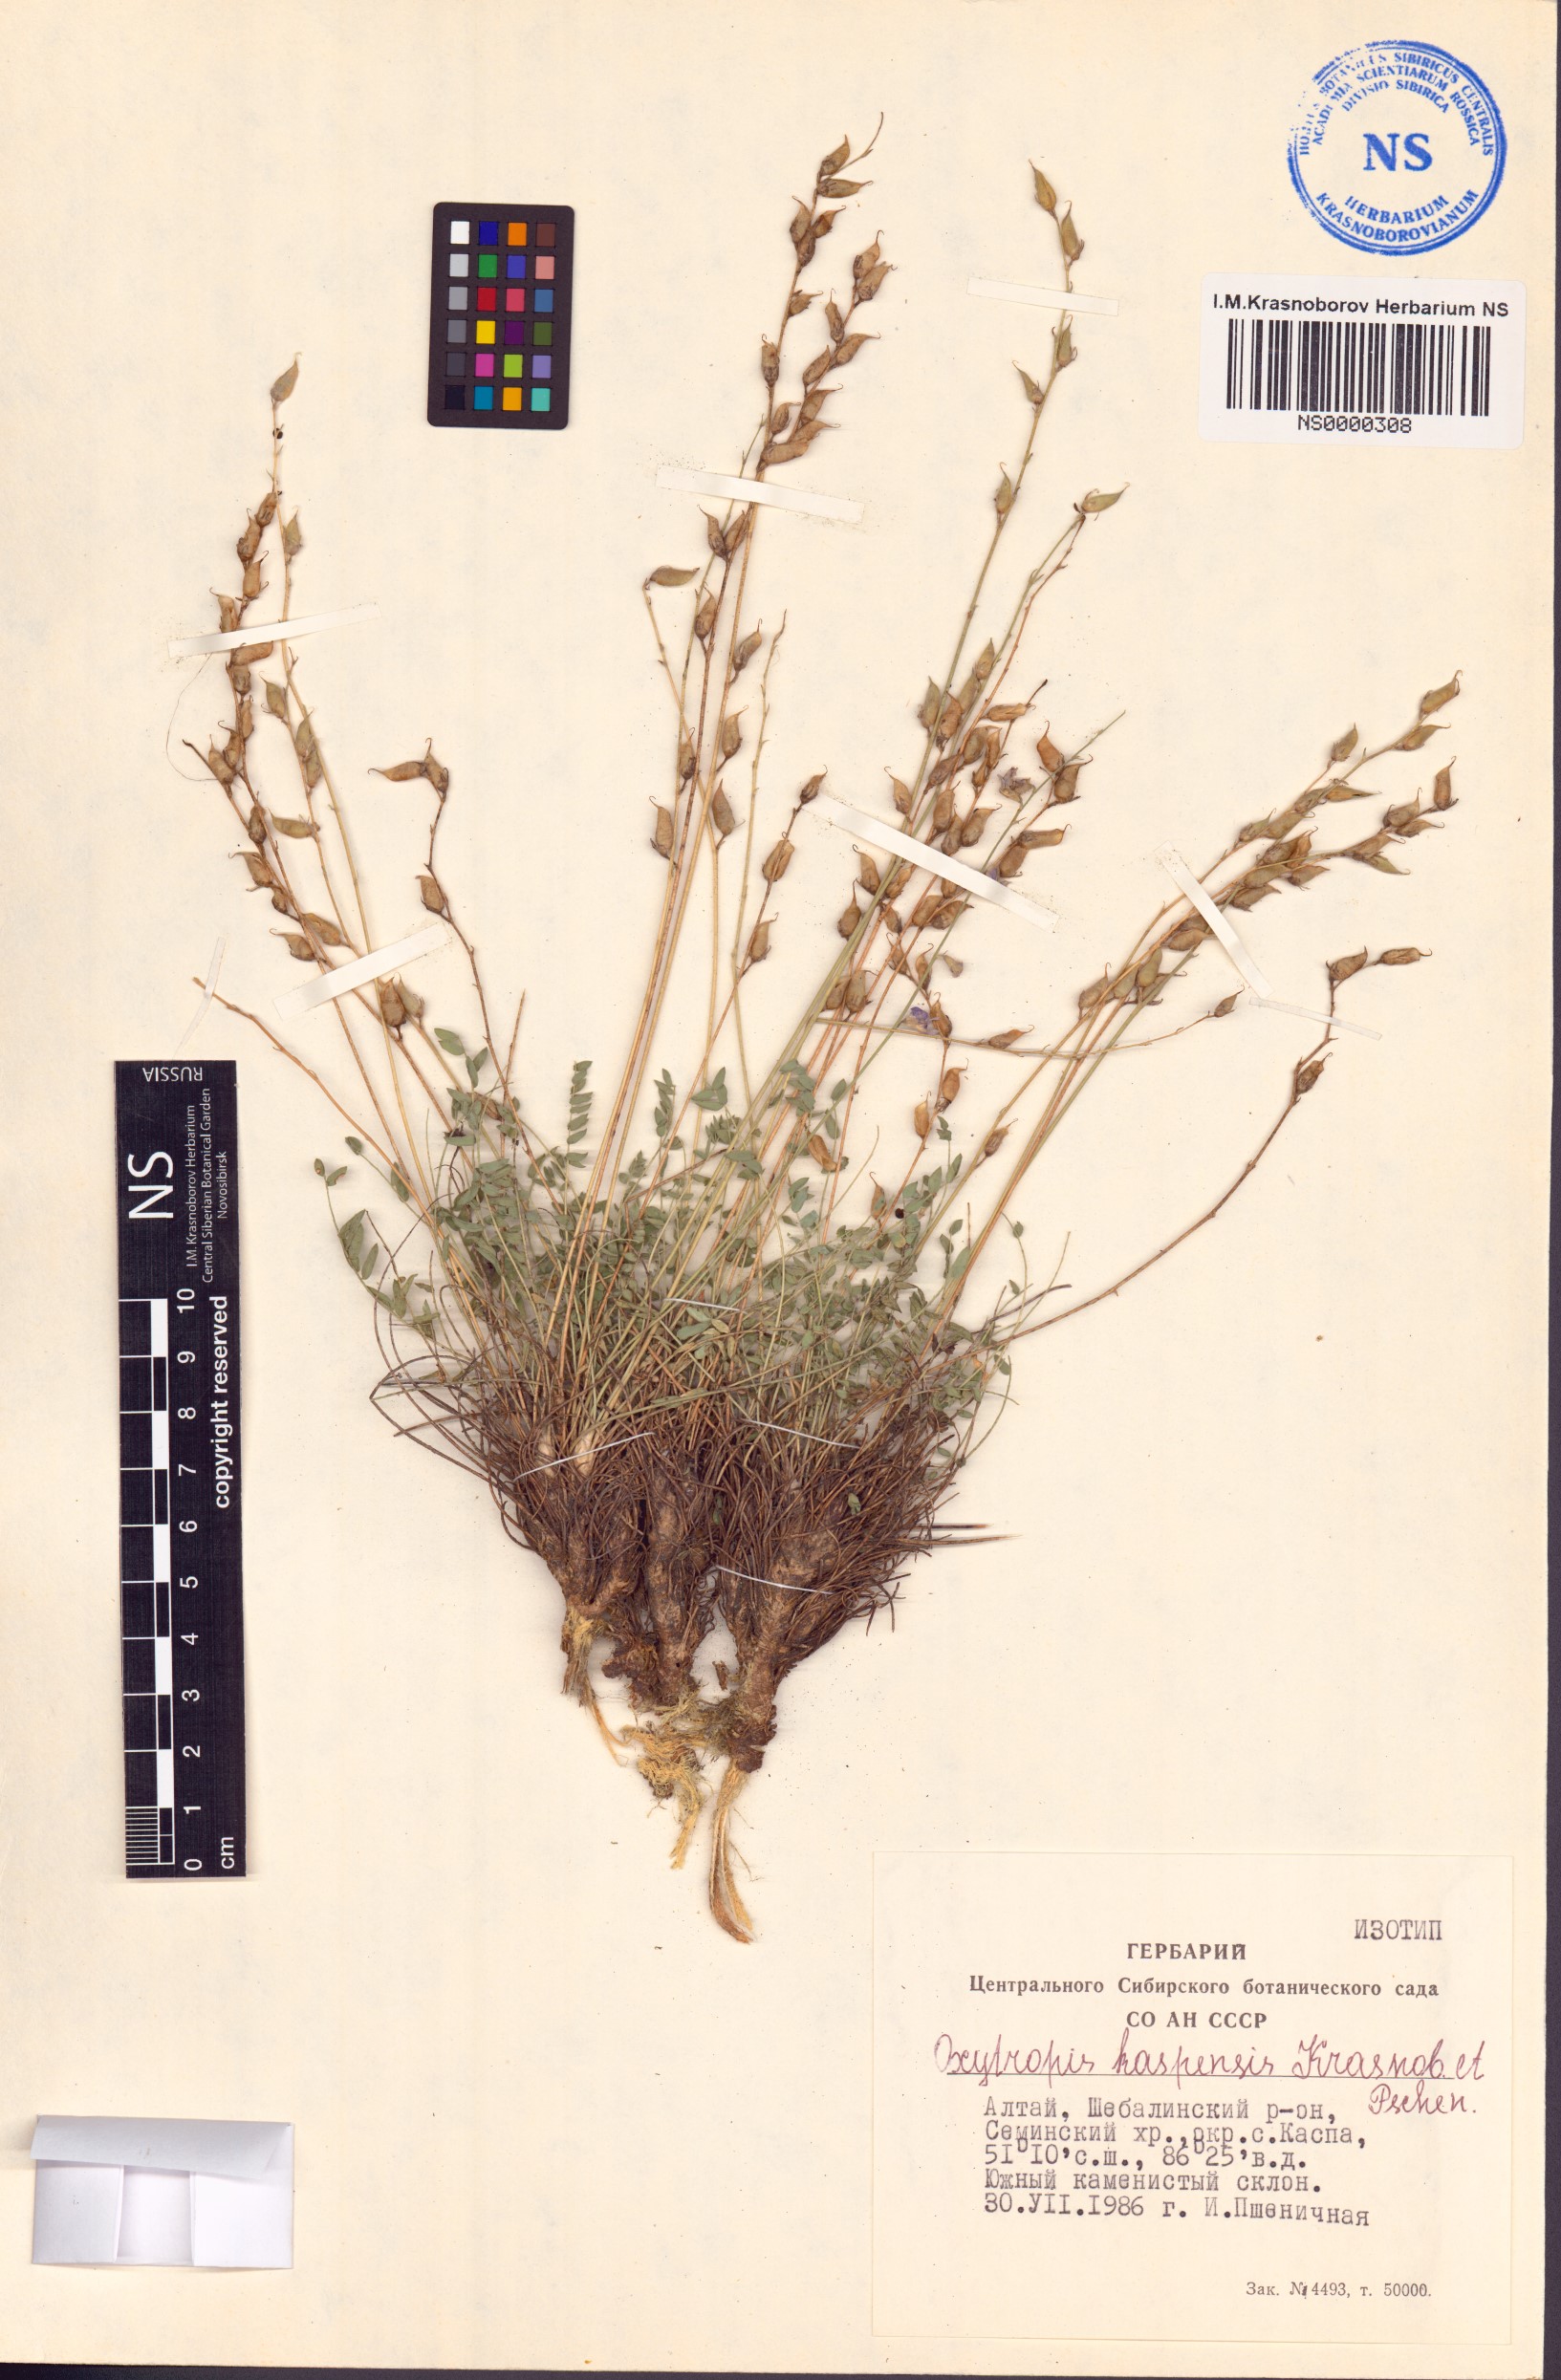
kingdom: Plantae
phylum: Tracheophyta
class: Magnoliopsida
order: Fabales
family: Fabaceae
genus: Oxytropis
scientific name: Oxytropis kaspensis
